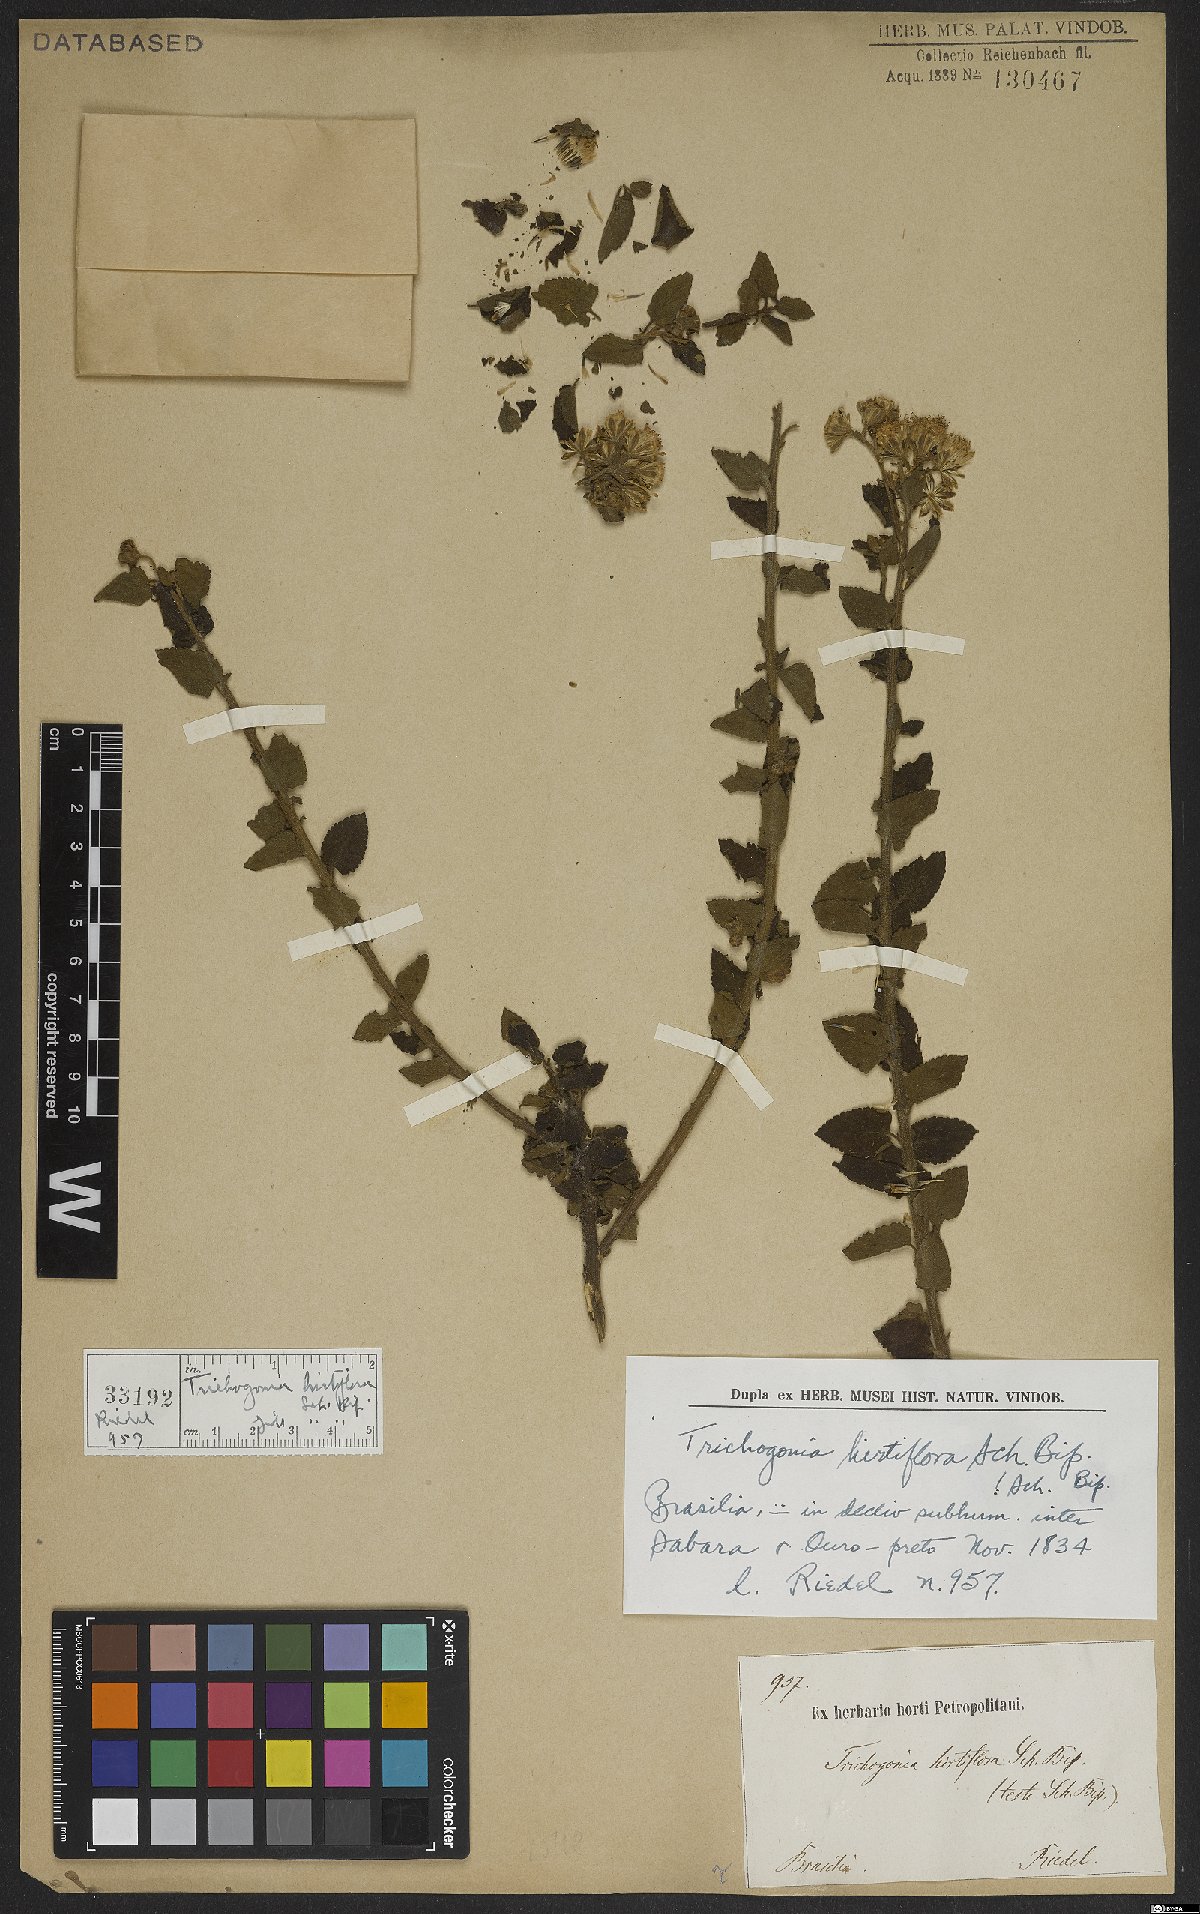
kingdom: Plantae
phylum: Tracheophyta
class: Magnoliopsida
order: Asterales
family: Asteraceae
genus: Trichogonia
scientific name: Trichogonia hirtiflora
